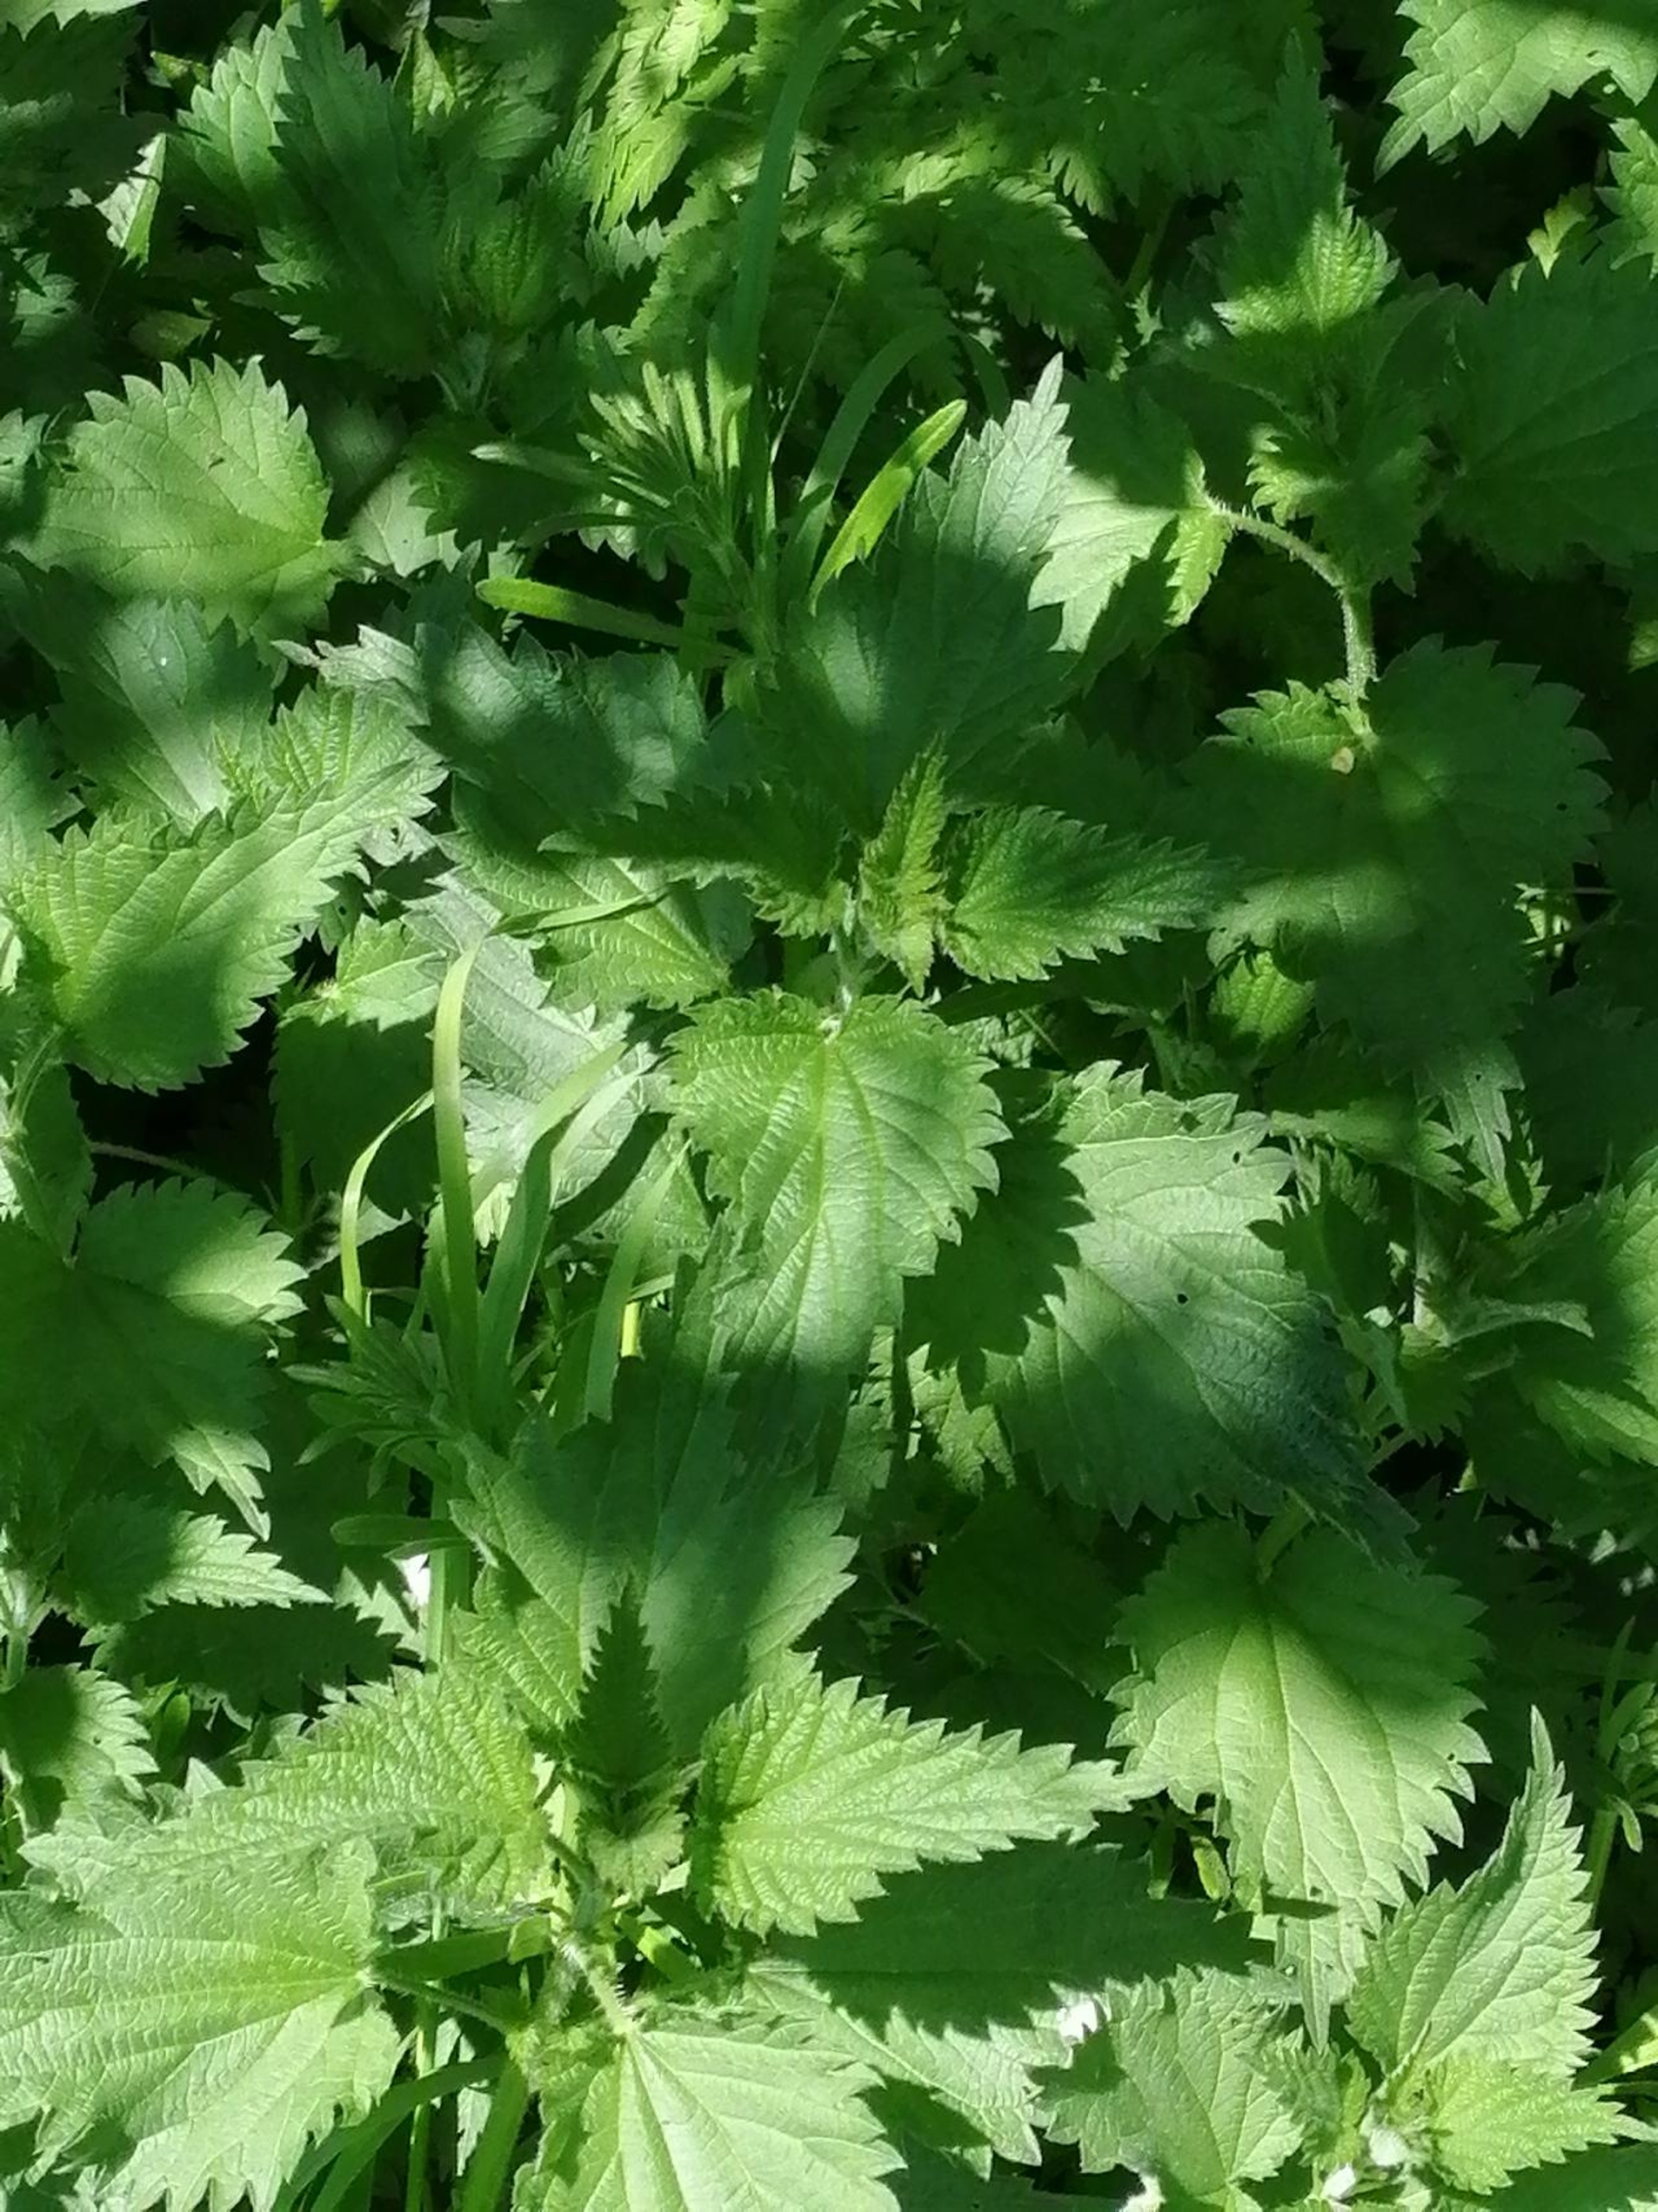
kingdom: Plantae
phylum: Tracheophyta
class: Magnoliopsida
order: Rosales
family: Urticaceae
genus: Urtica
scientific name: Urtica dioica
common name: Stor nælde
